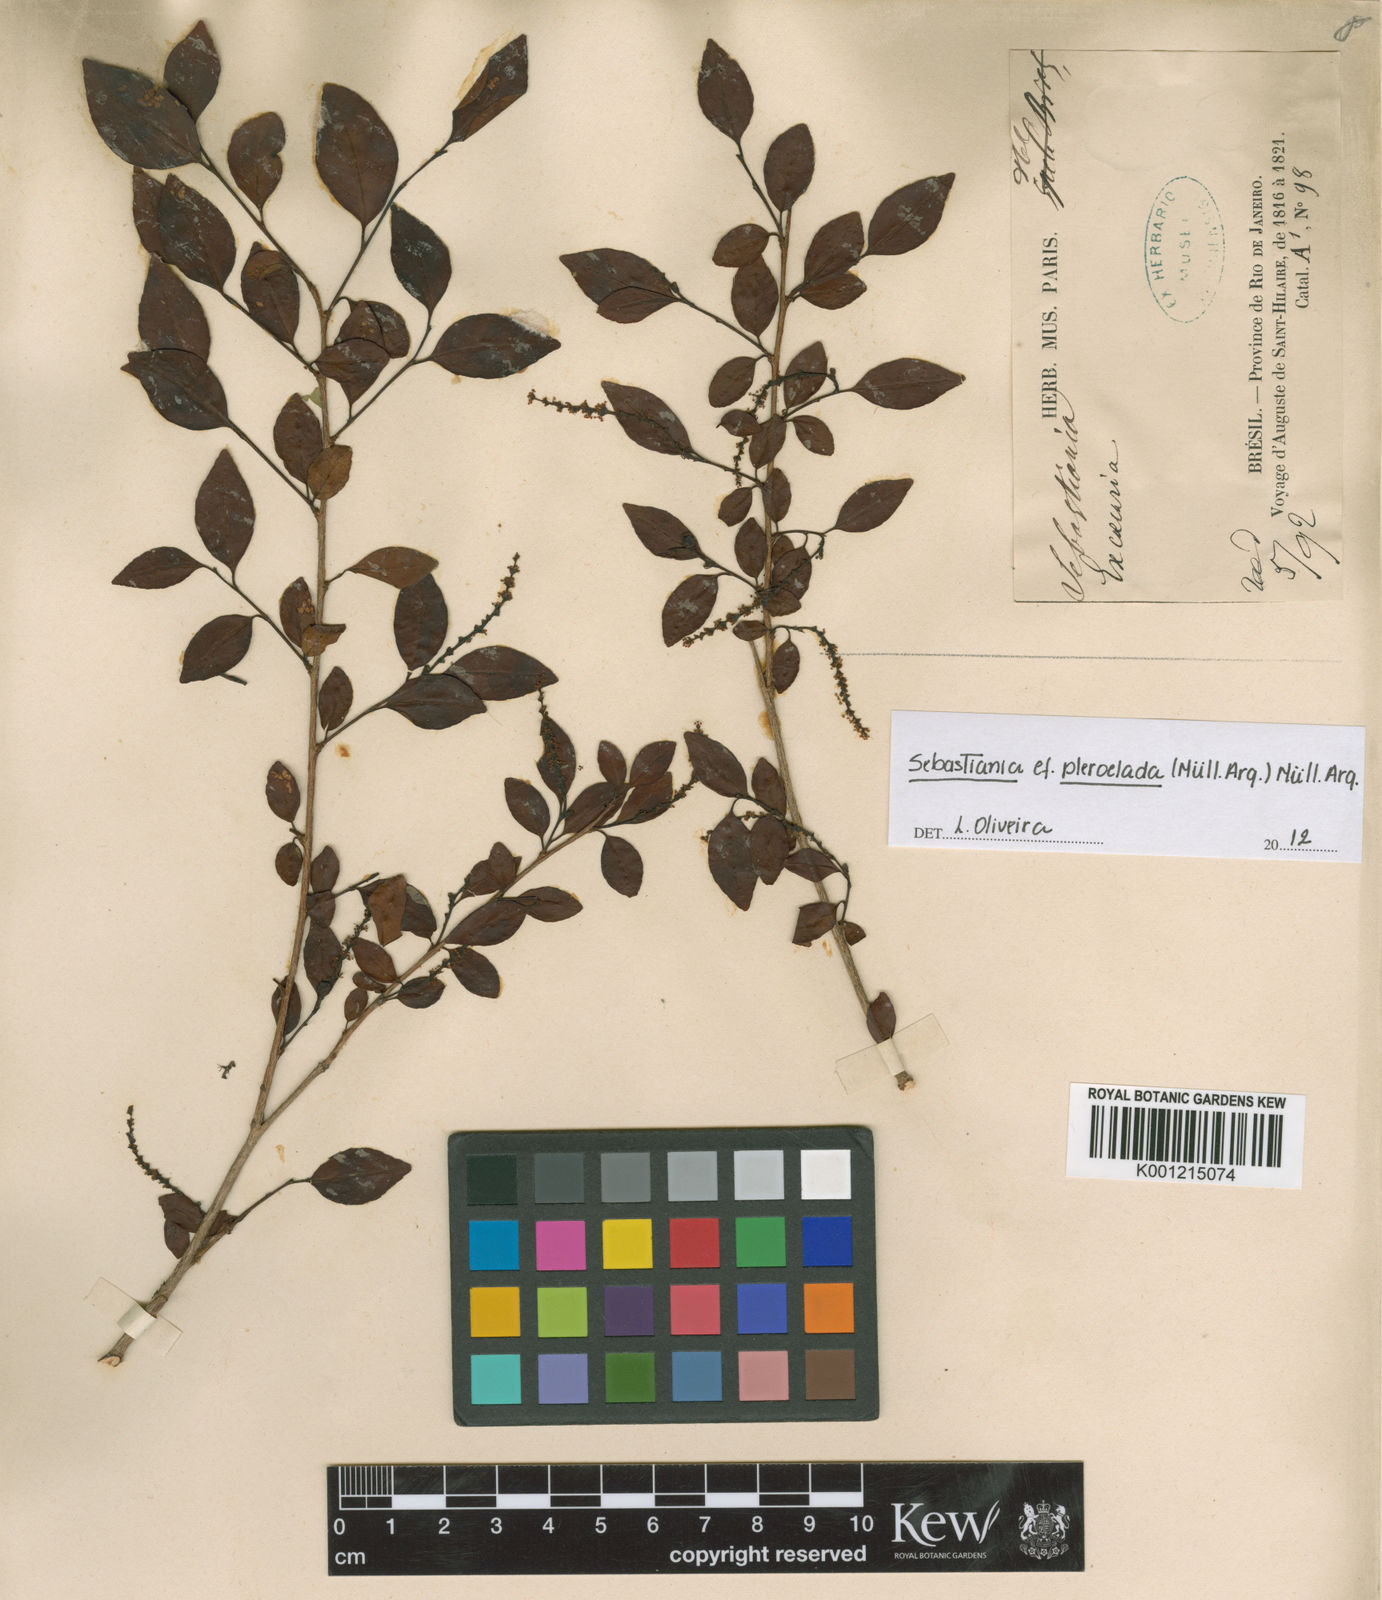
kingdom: Plantae
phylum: Tracheophyta
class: Magnoliopsida
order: Malpighiales
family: Euphorbiaceae
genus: Sebastiania
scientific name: Sebastiania
